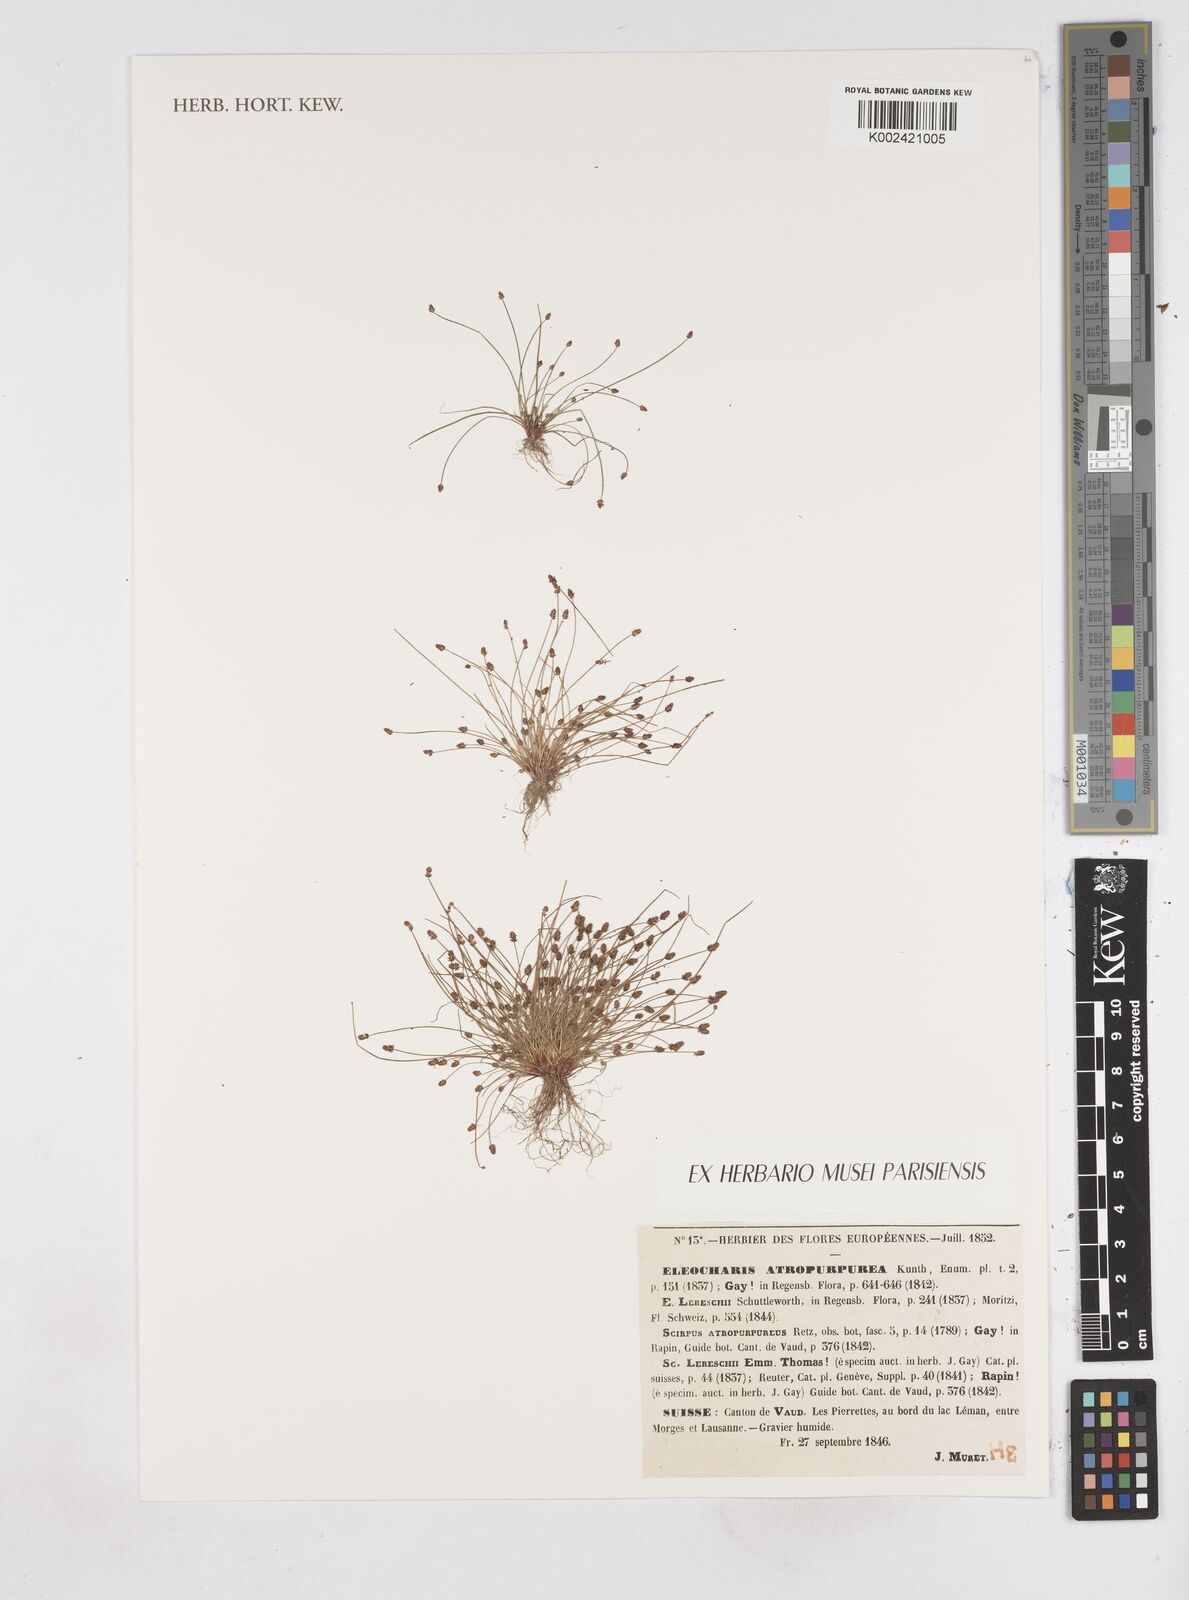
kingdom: Plantae
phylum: Tracheophyta
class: Liliopsida
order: Poales
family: Cyperaceae
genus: Eleocharis
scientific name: Eleocharis atropurpurea
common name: Purple spikerush
